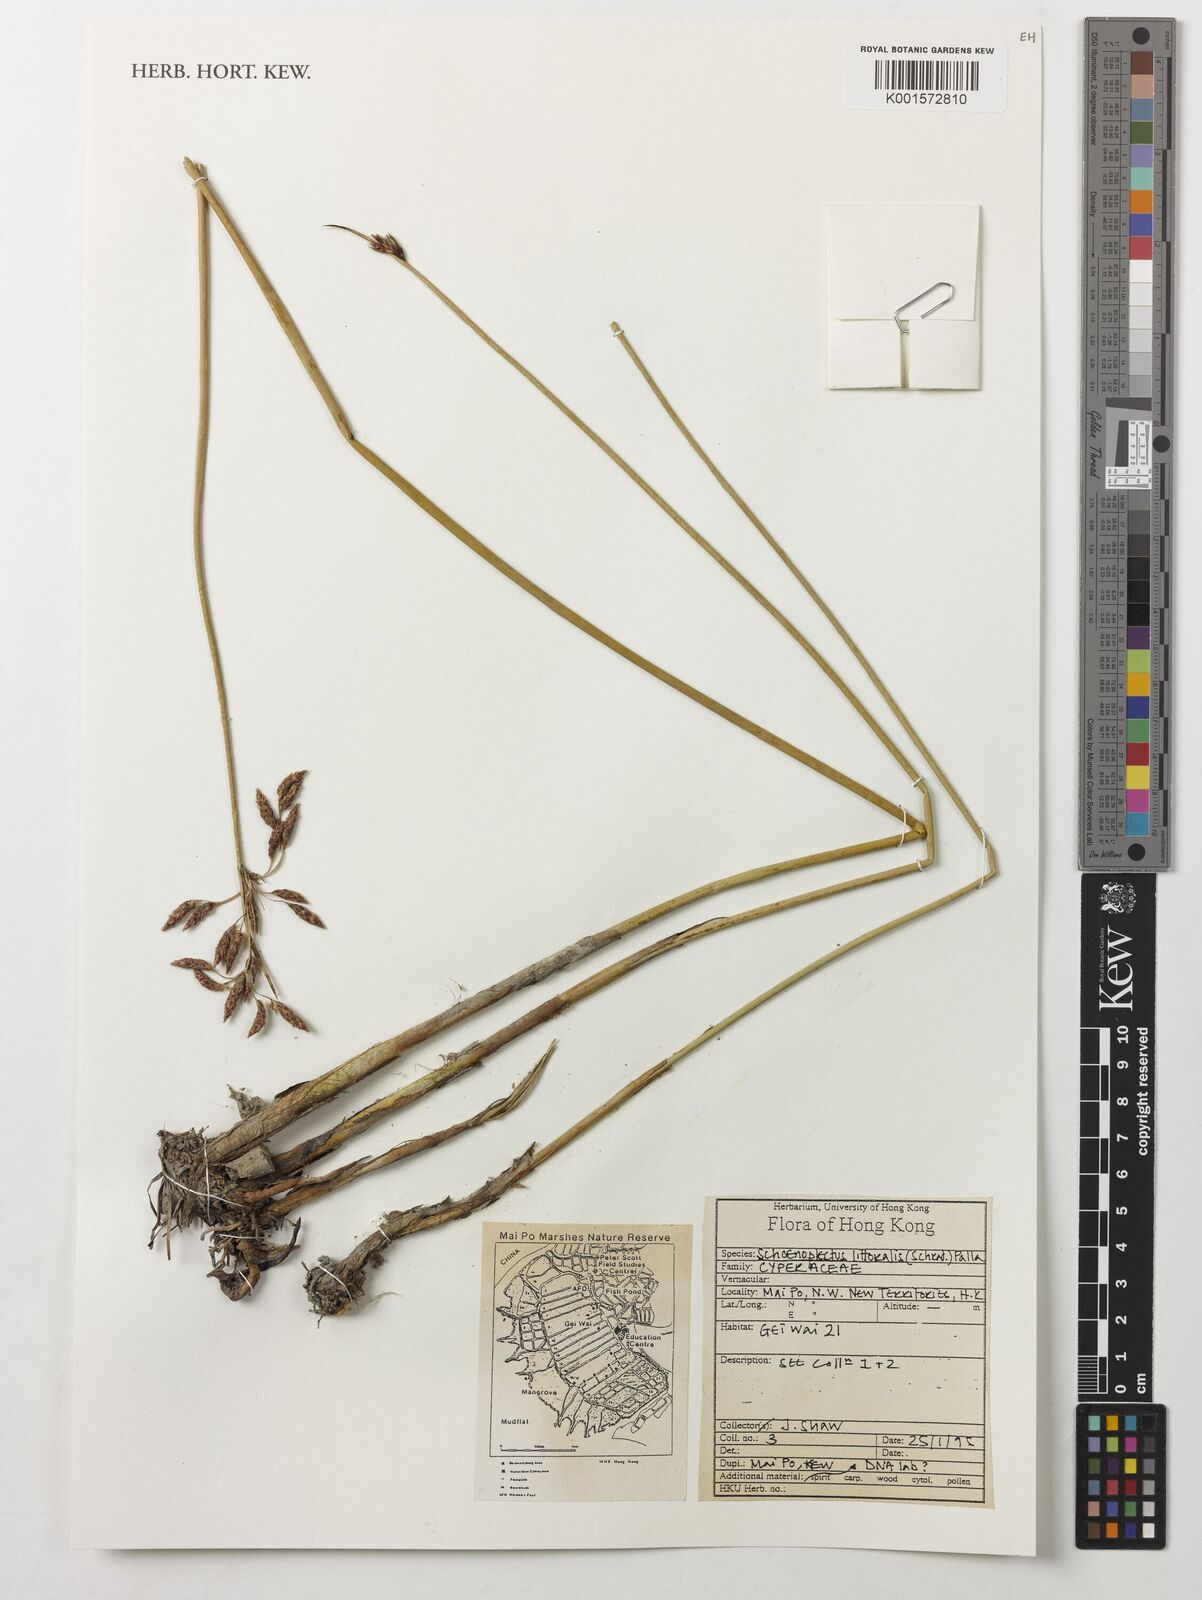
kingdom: Plantae
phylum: Tracheophyta
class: Liliopsida
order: Poales
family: Cyperaceae
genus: Schoenoplectus
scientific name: Schoenoplectus litoralis
